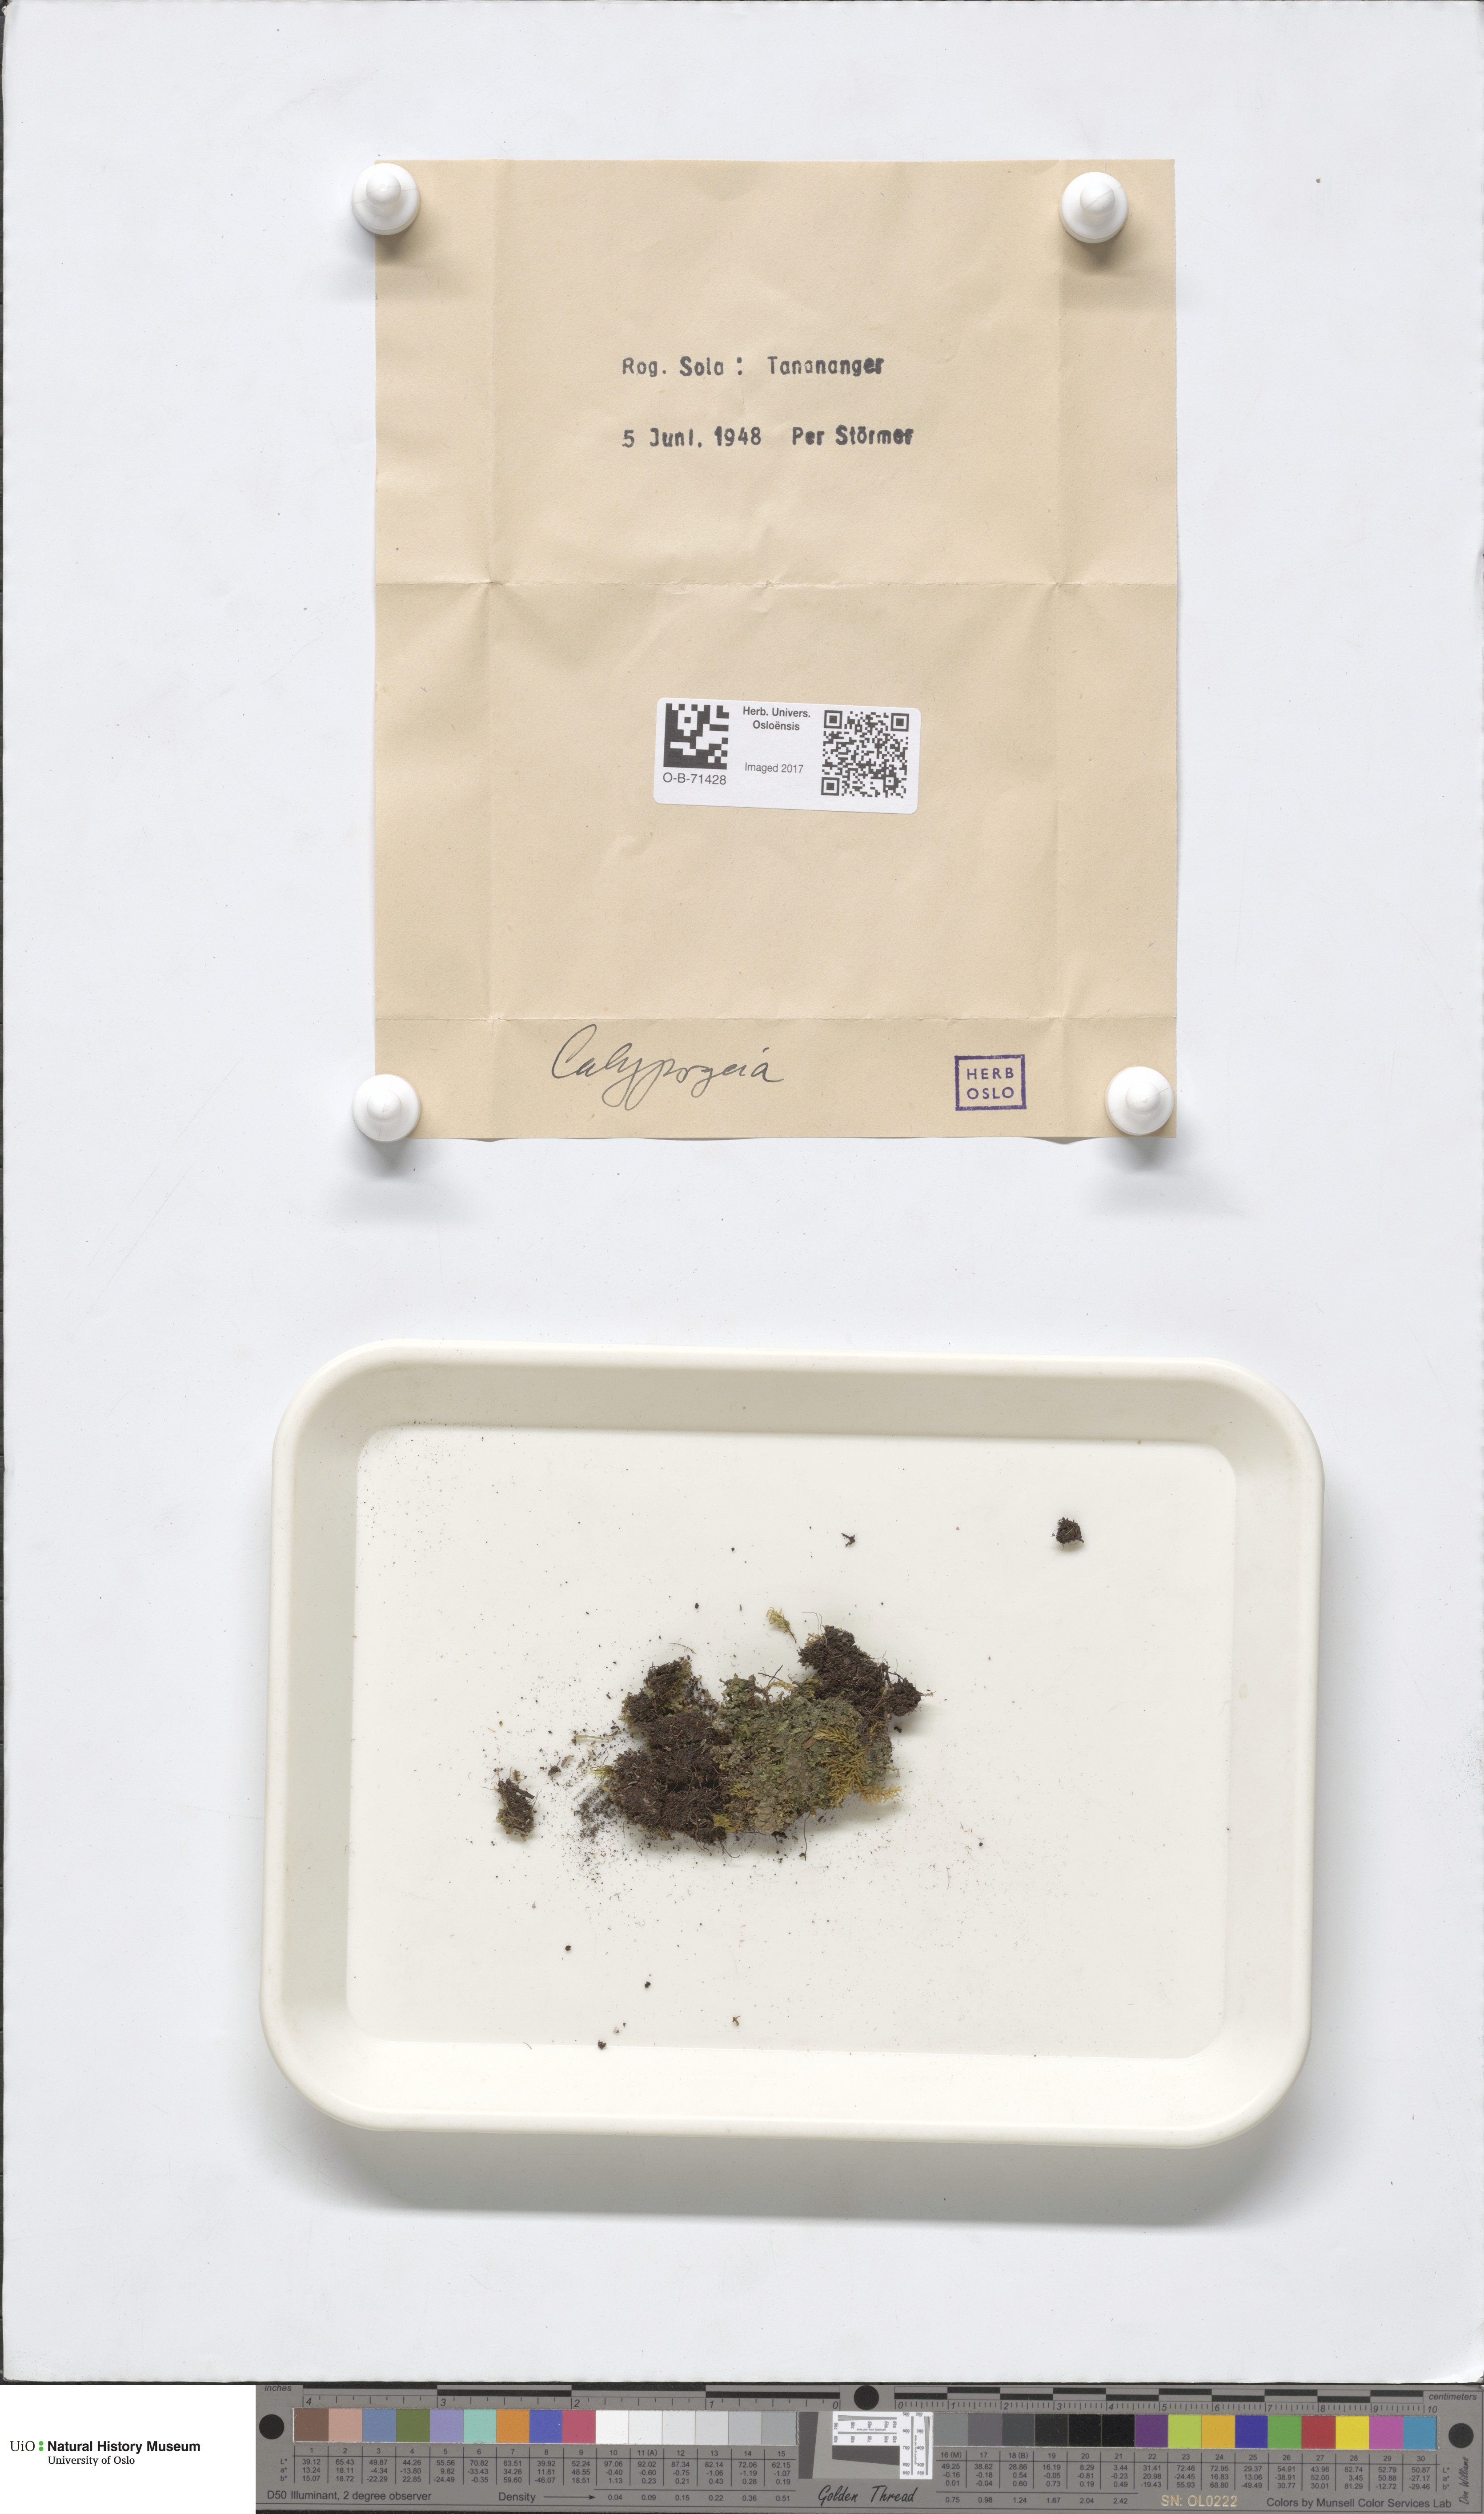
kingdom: Plantae
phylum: Marchantiophyta
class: Jungermanniopsida
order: Jungermanniales
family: Calypogeiaceae
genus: Calypogeia
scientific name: Calypogeia
